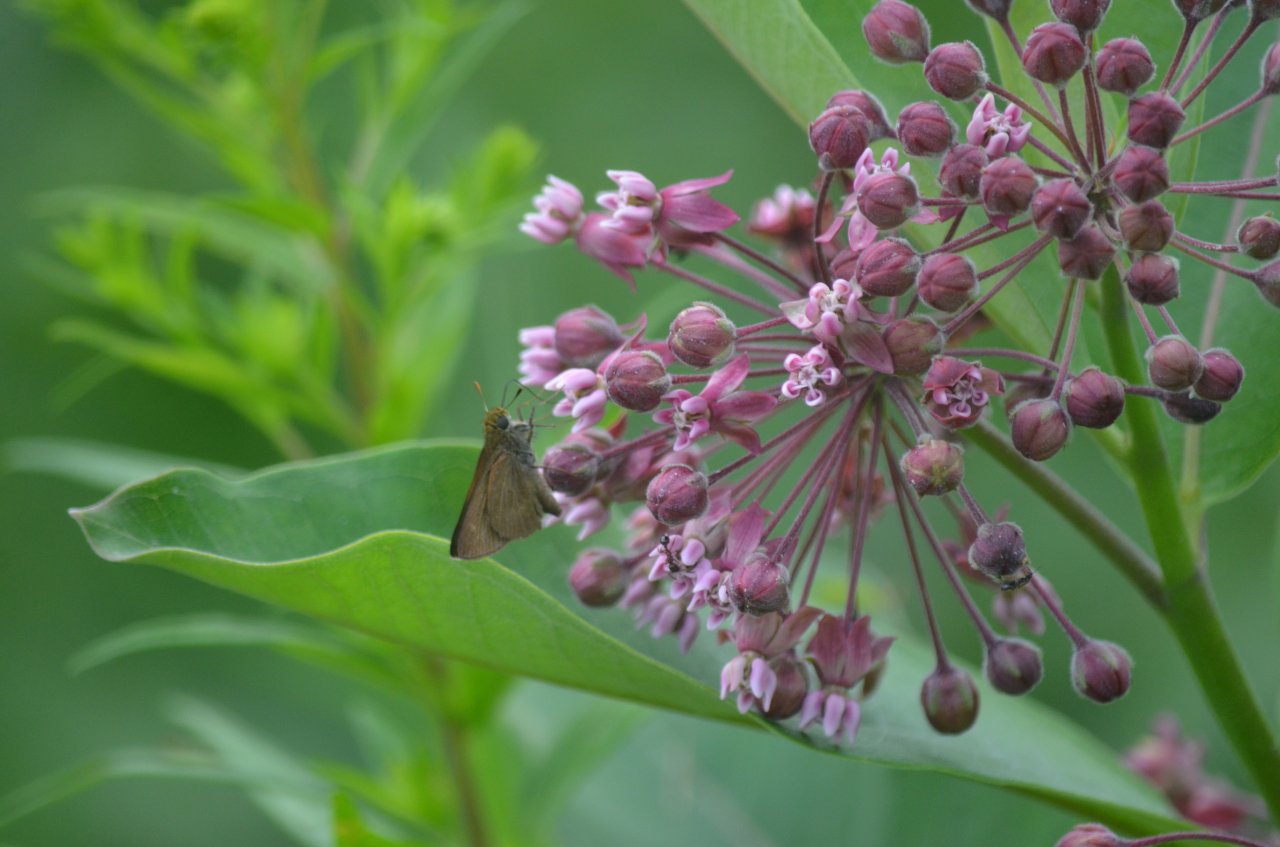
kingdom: Animalia
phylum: Arthropoda
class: Insecta
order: Lepidoptera
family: Hesperiidae
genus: Euphyes
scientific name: Euphyes vestris
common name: Dun Skipper
